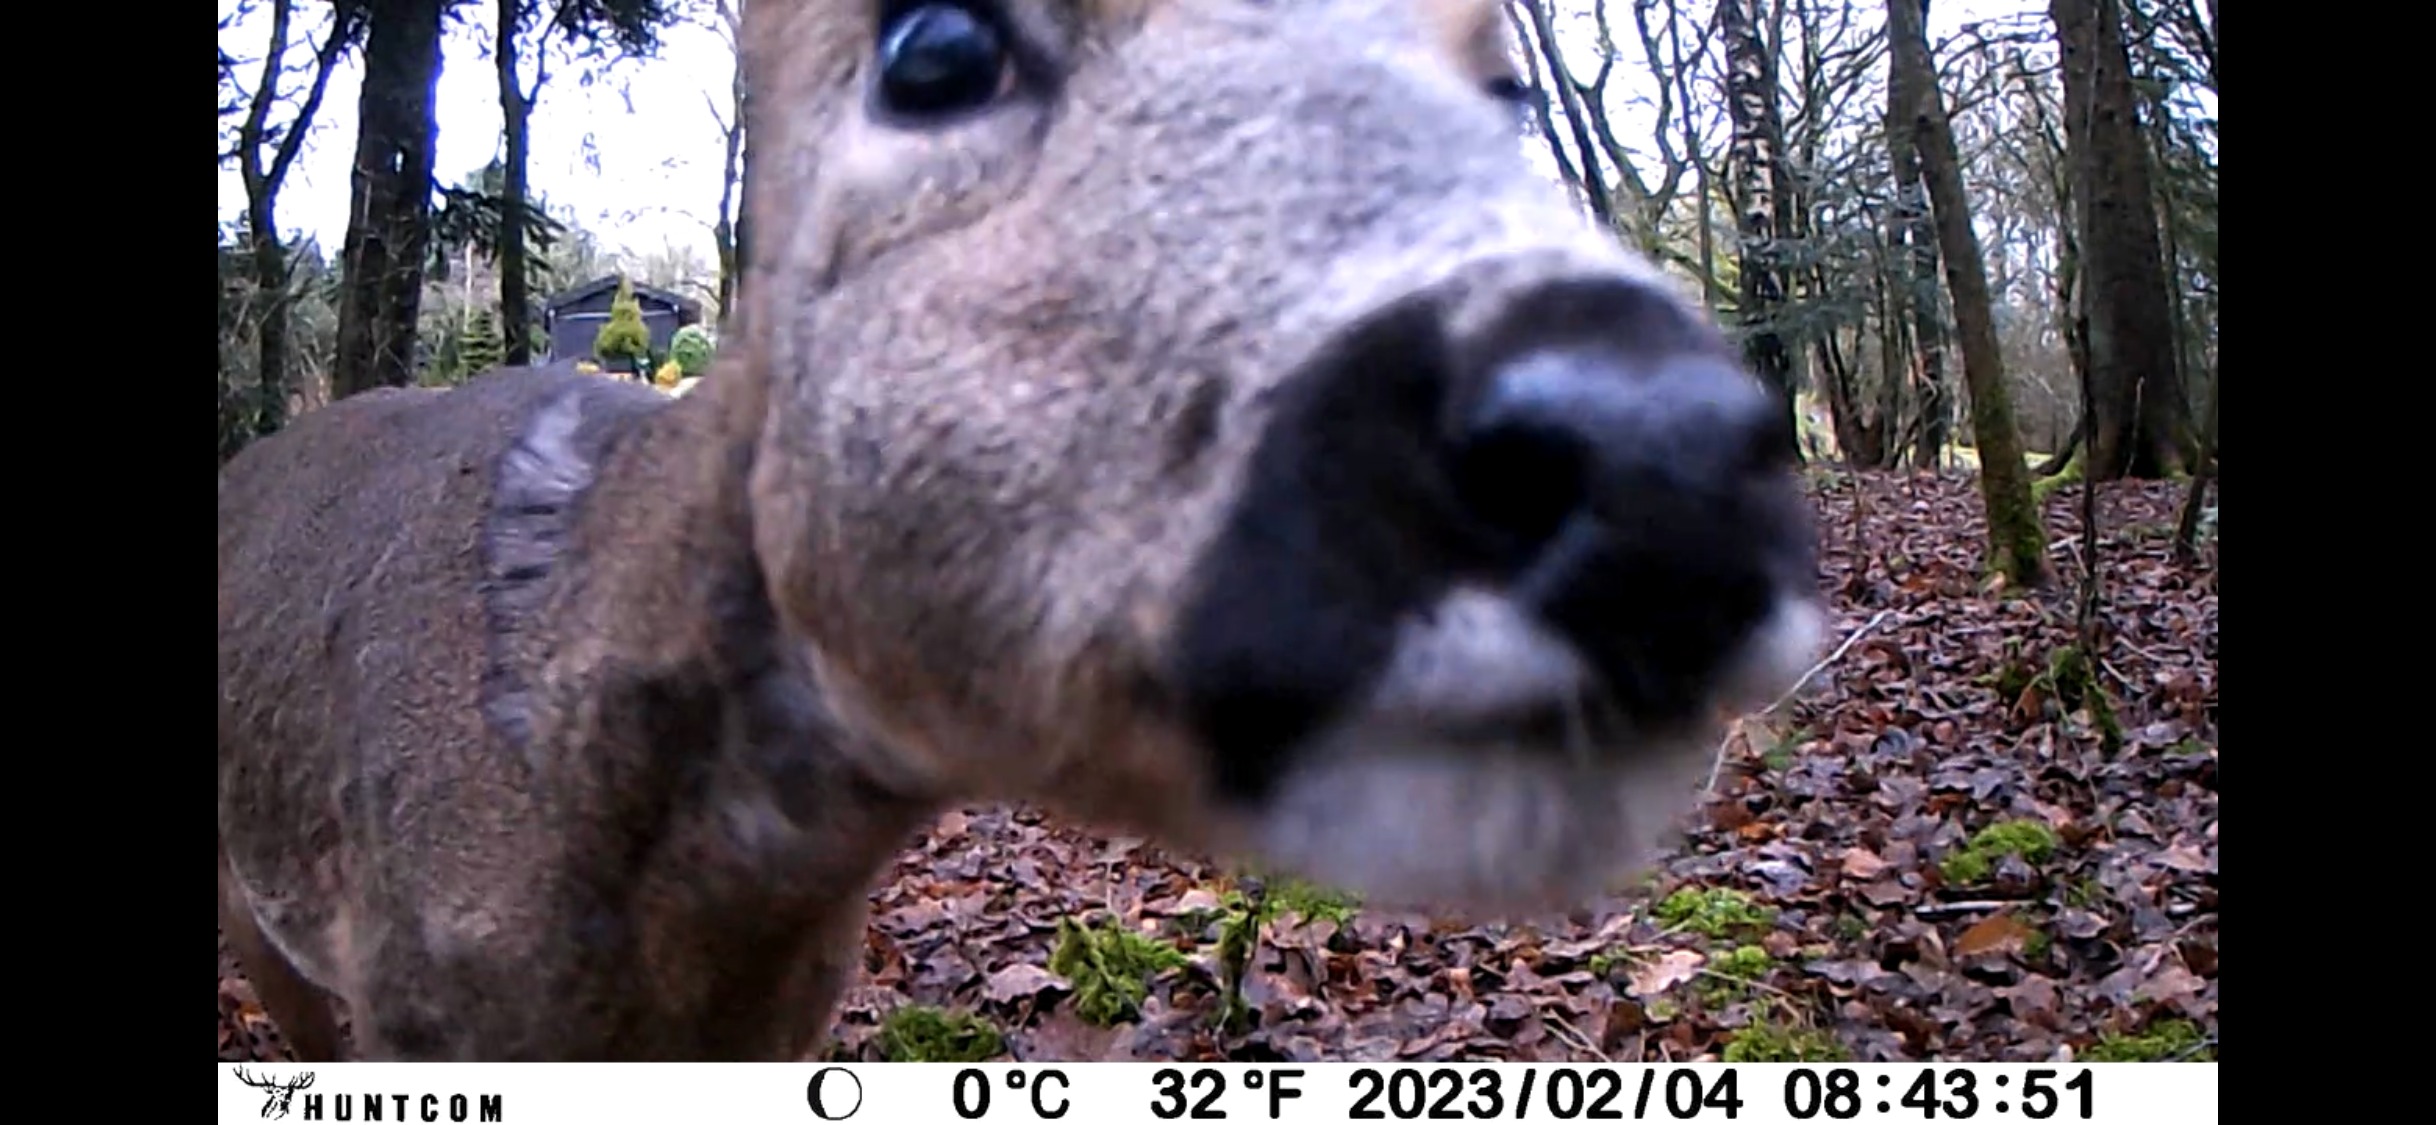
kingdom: Animalia
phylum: Chordata
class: Mammalia
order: Artiodactyla
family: Cervidae
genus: Capreolus
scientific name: Capreolus capreolus
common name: Rådyr
